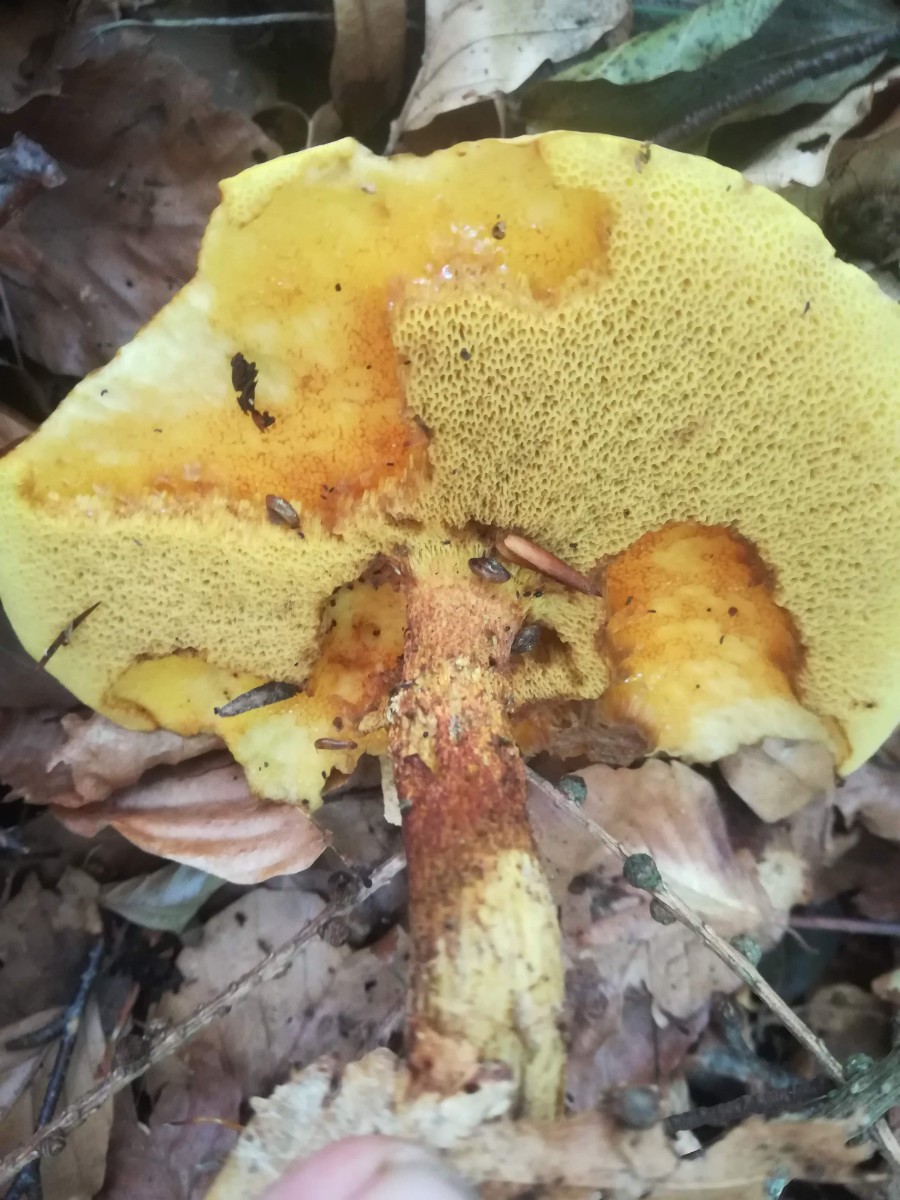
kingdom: Fungi
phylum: Basidiomycota
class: Agaricomycetes
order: Boletales
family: Suillaceae
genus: Suillus
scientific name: Suillus grevillei
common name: lærke-slimrørhat
